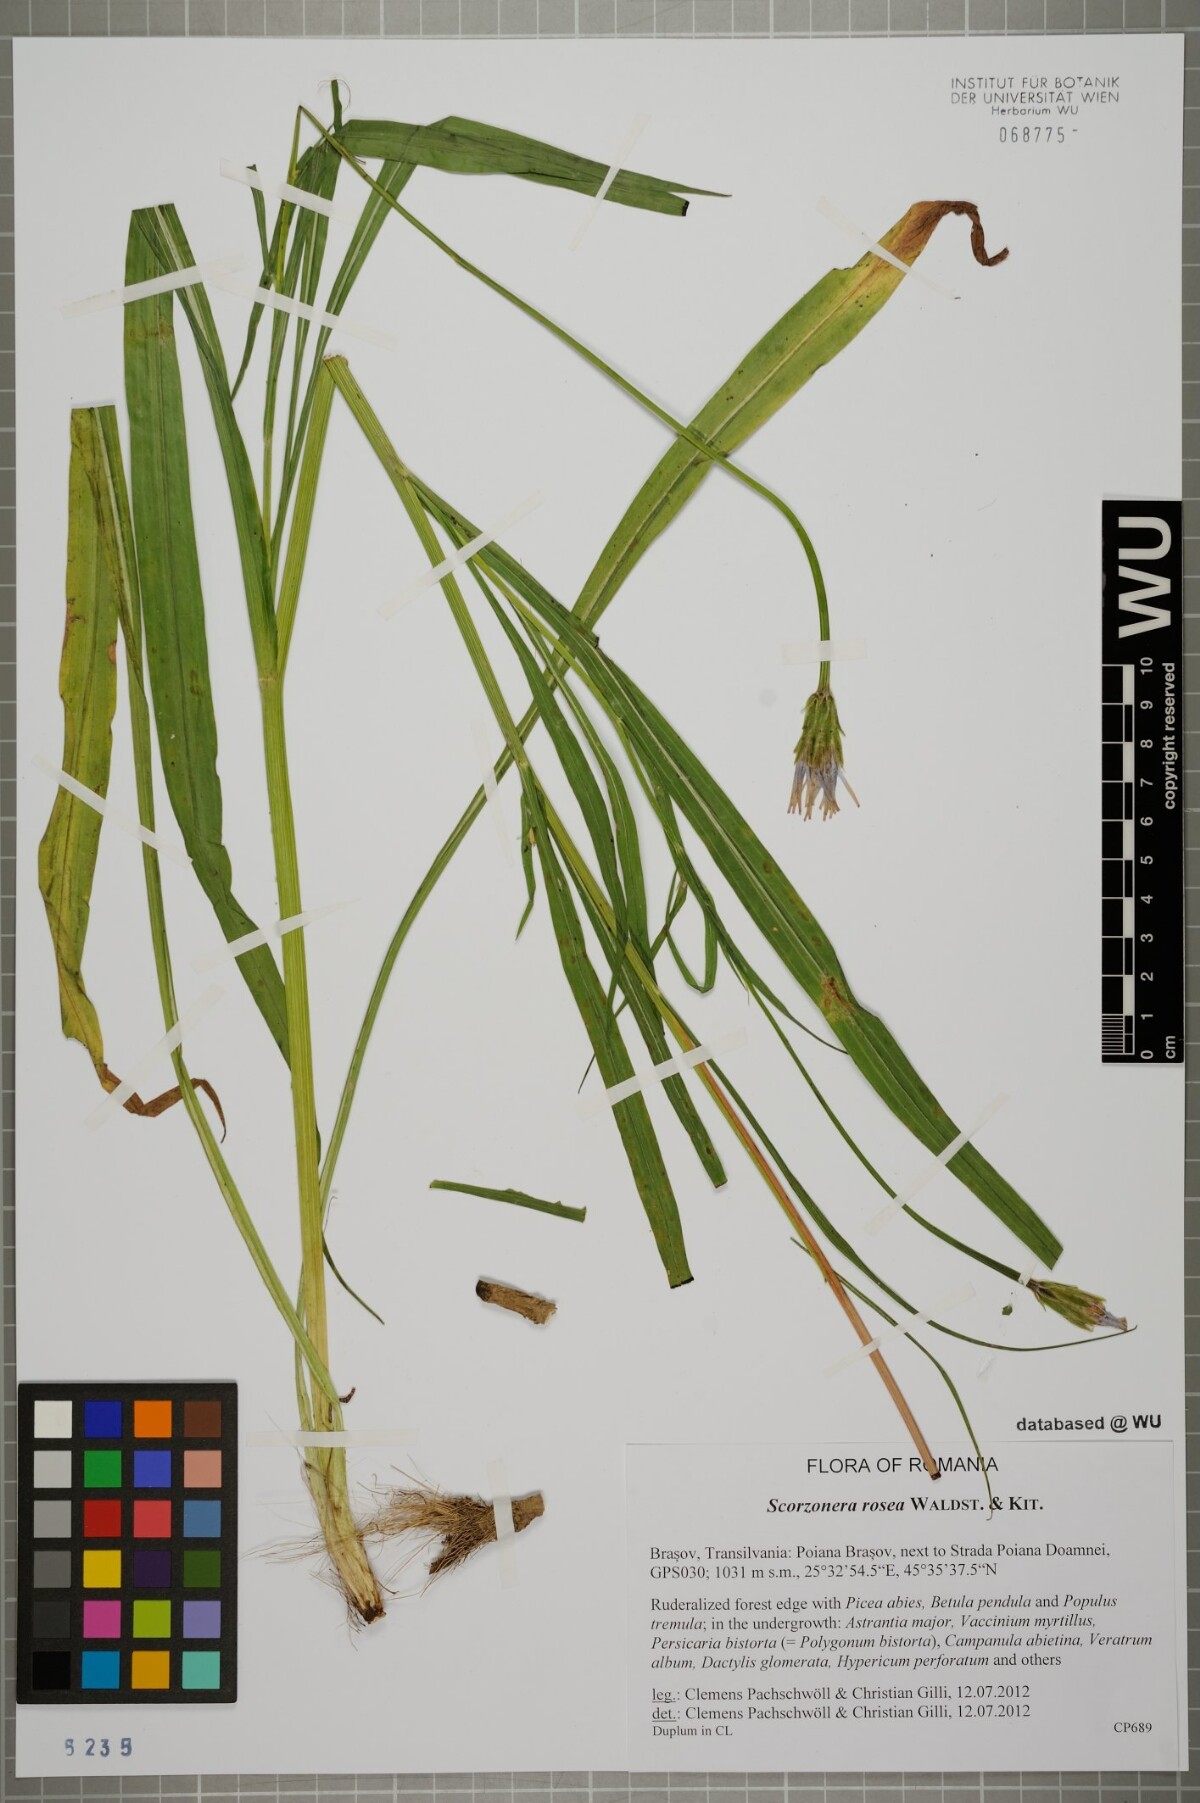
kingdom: Plantae
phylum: Tracheophyta
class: Magnoliopsida
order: Asterales
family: Asteraceae
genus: Scorzonera
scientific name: Scorzonera rosea
